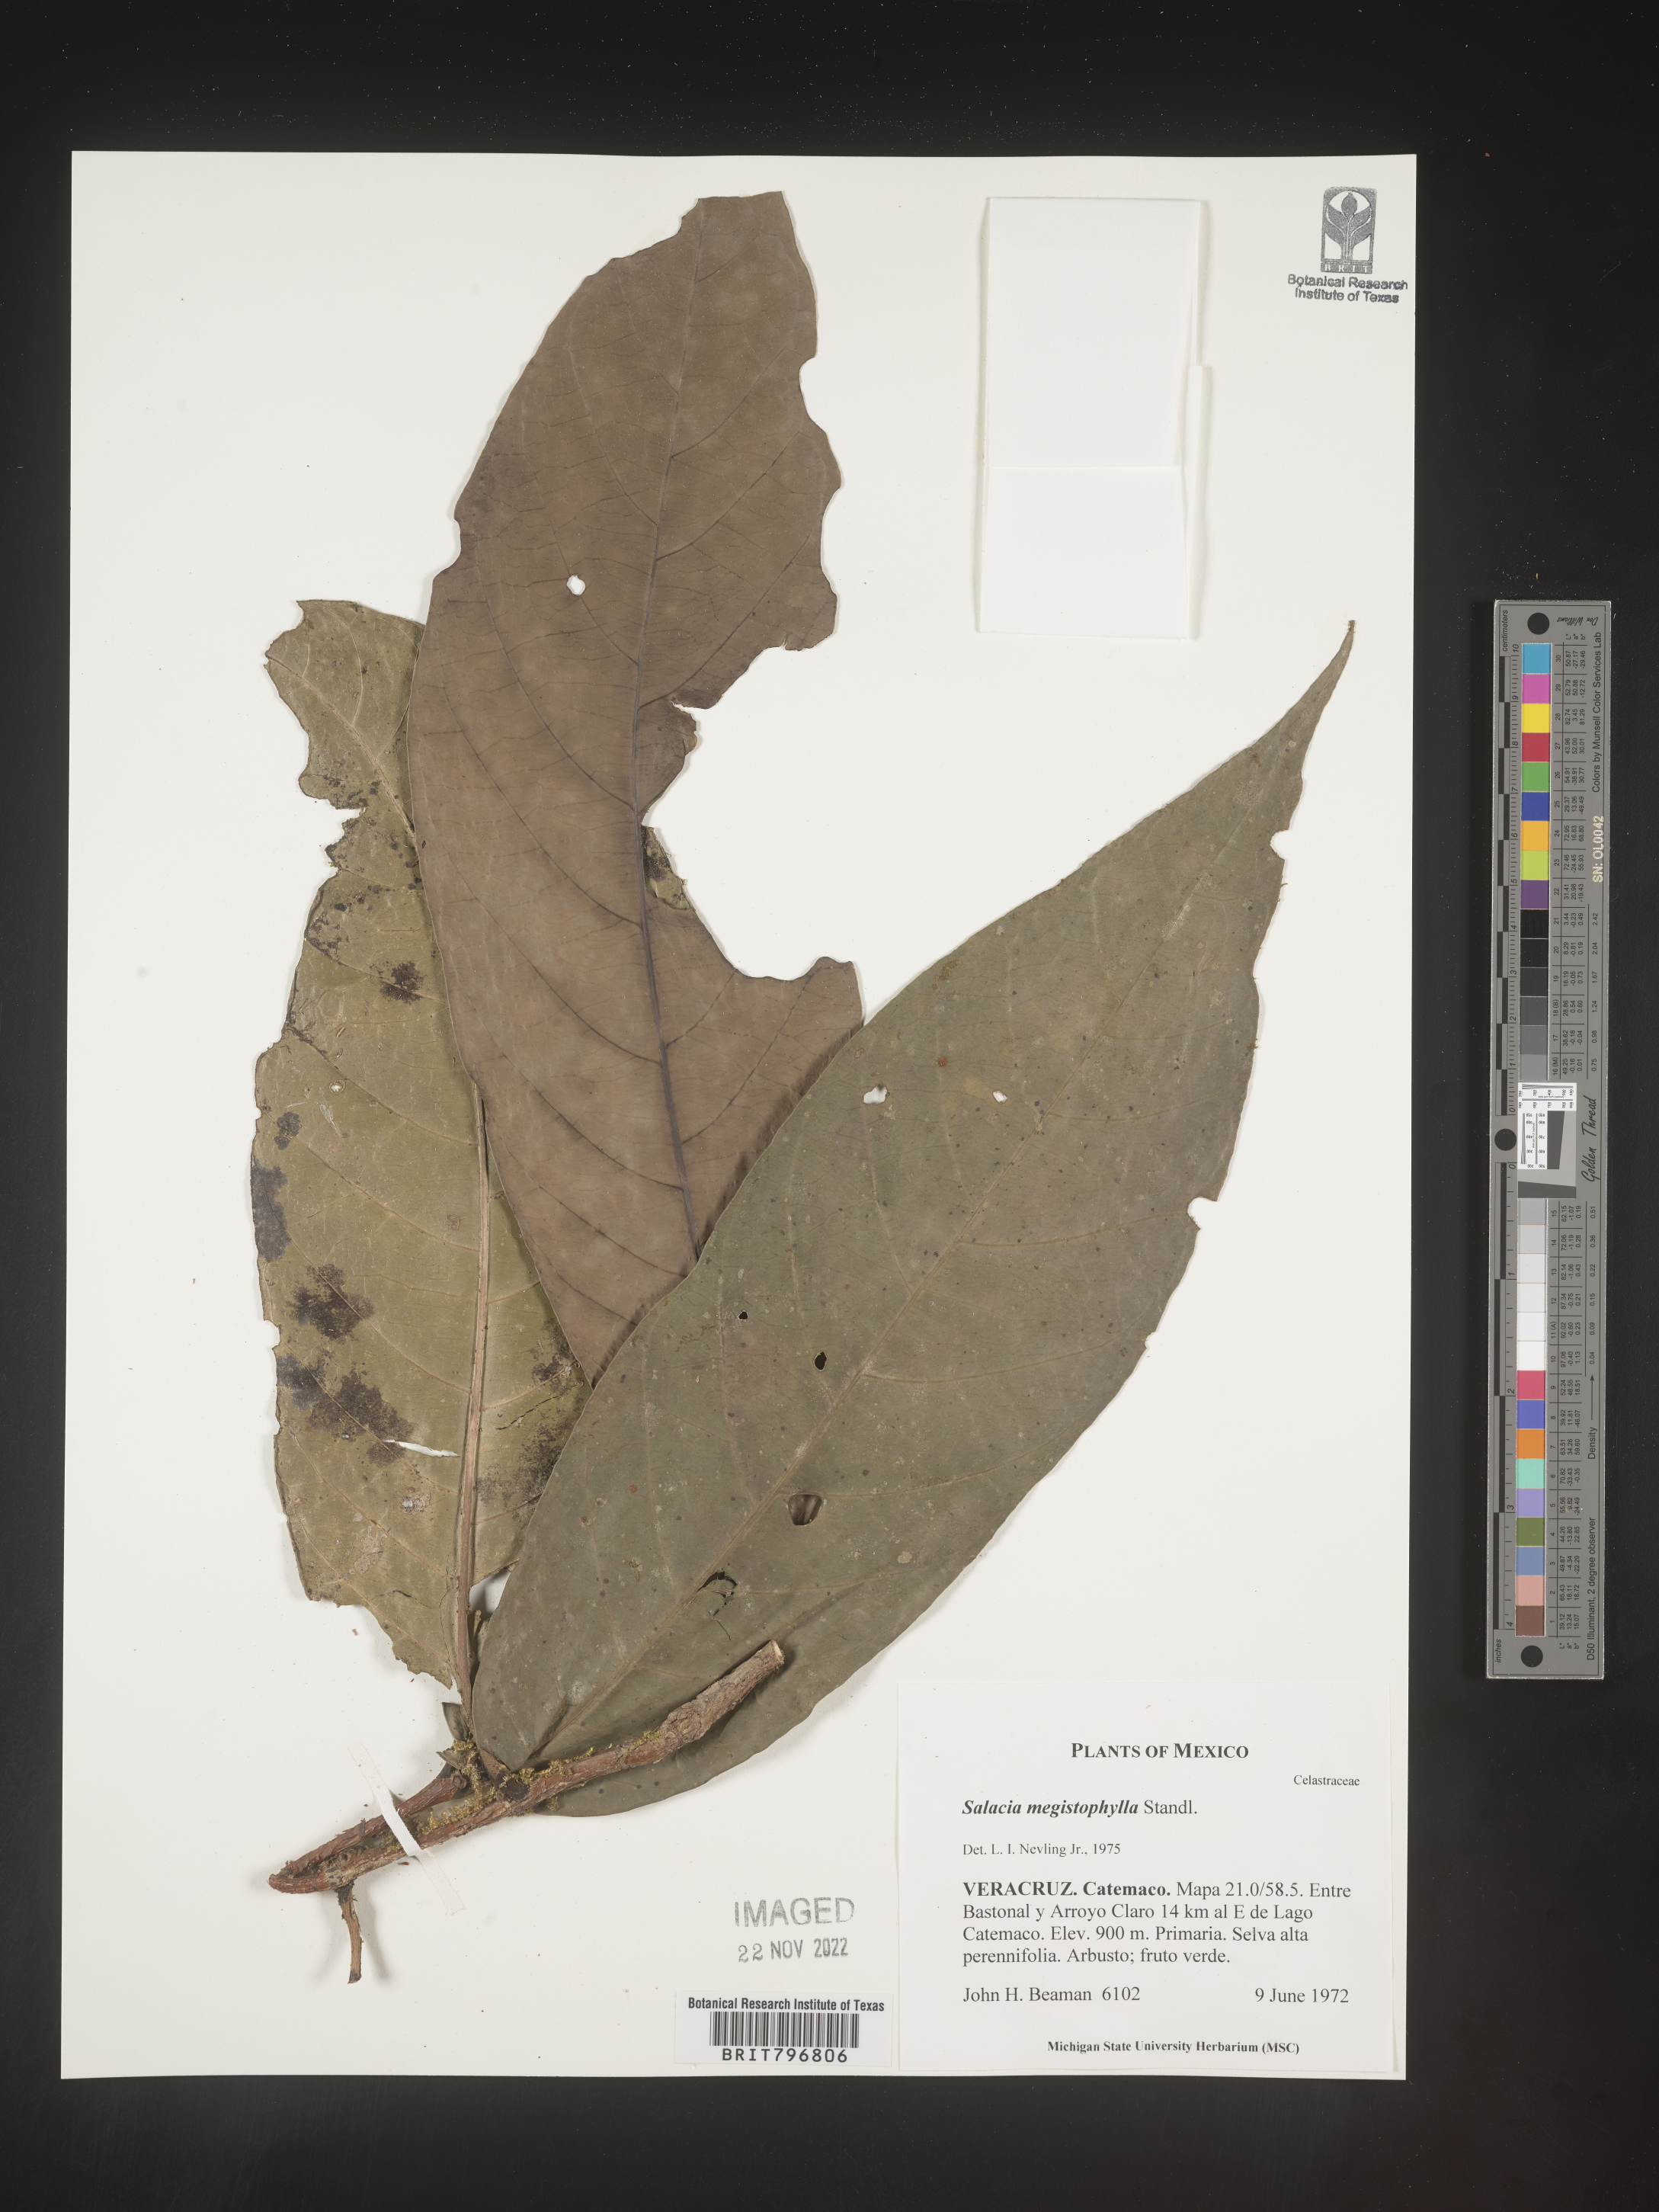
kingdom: Plantae
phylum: Tracheophyta
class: Magnoliopsida
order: Celastrales
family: Celastraceae
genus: Salacia
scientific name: Salacia
